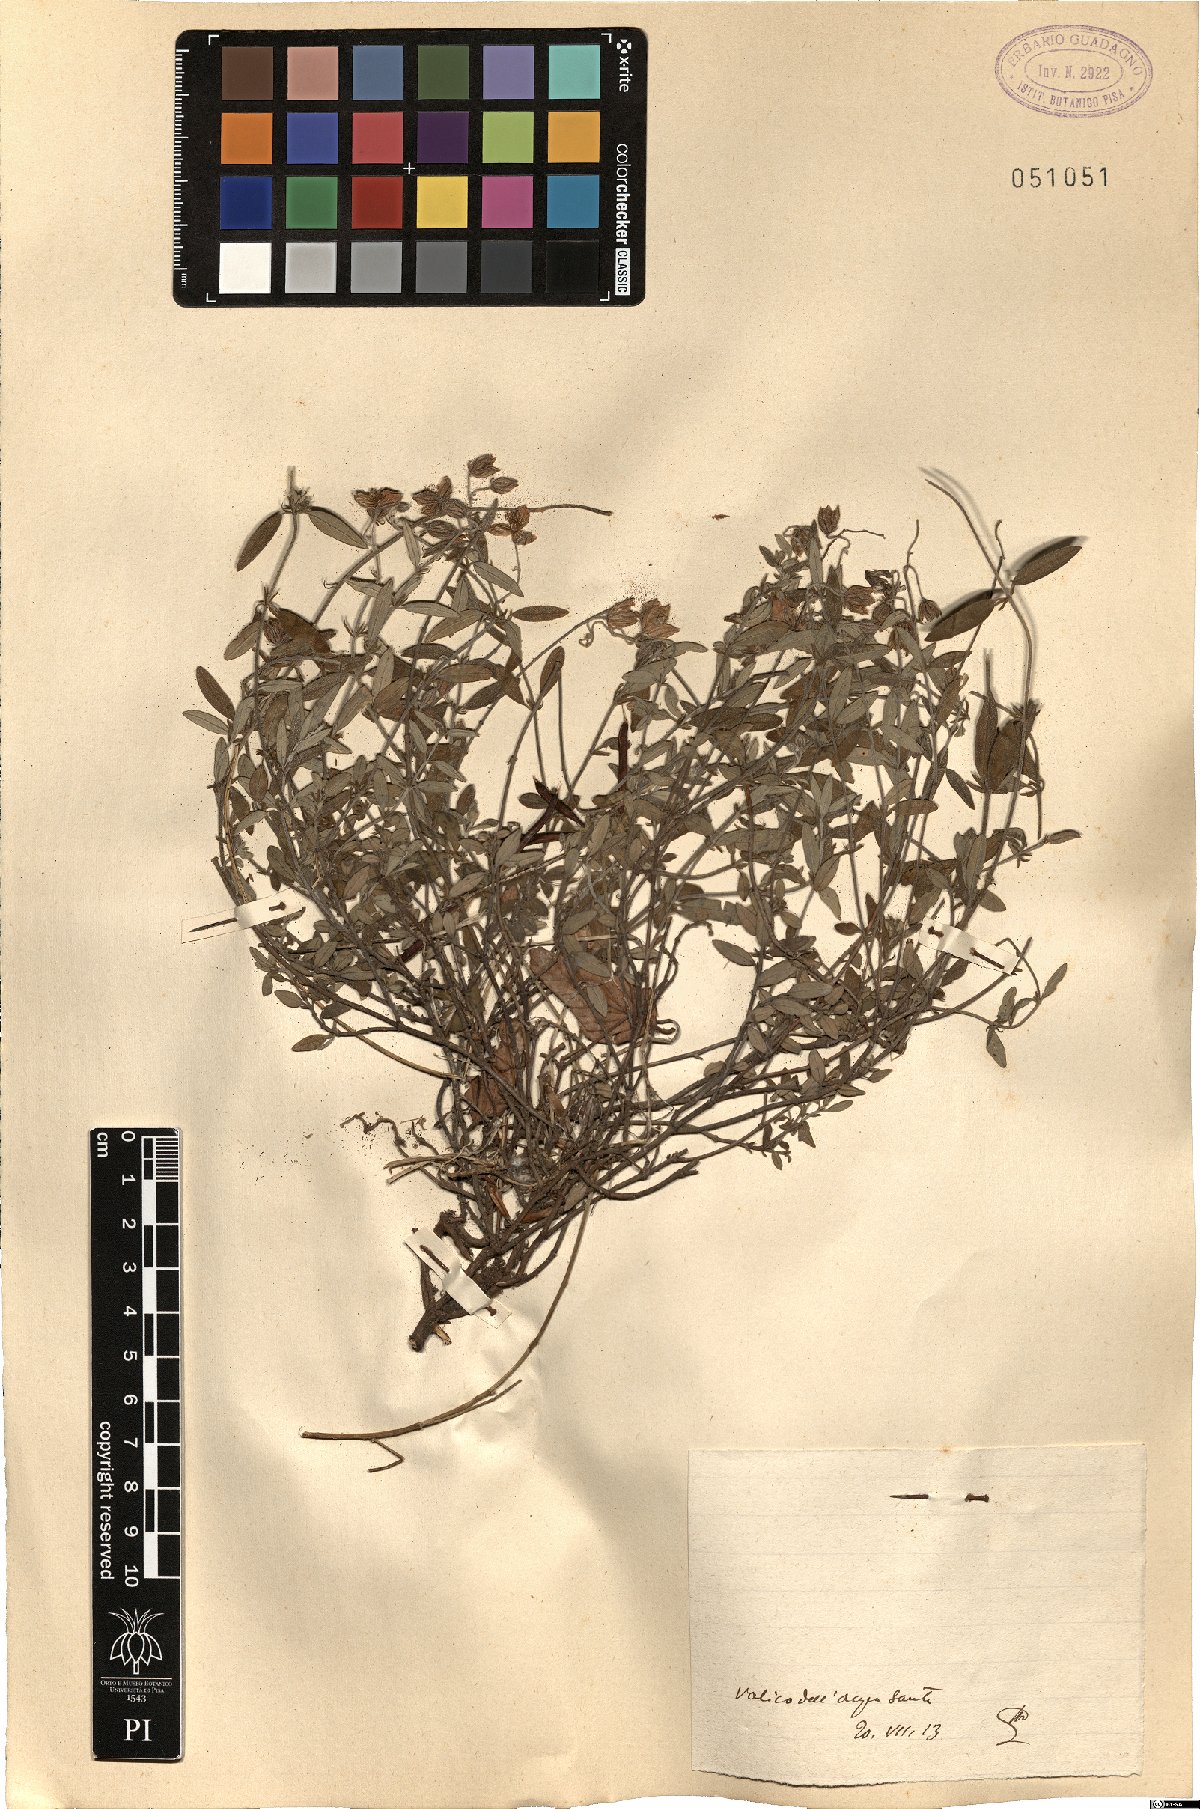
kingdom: Plantae
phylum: Tracheophyta
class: Magnoliopsida
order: Malvales
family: Cistaceae
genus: Helianthemum
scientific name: Helianthemum
